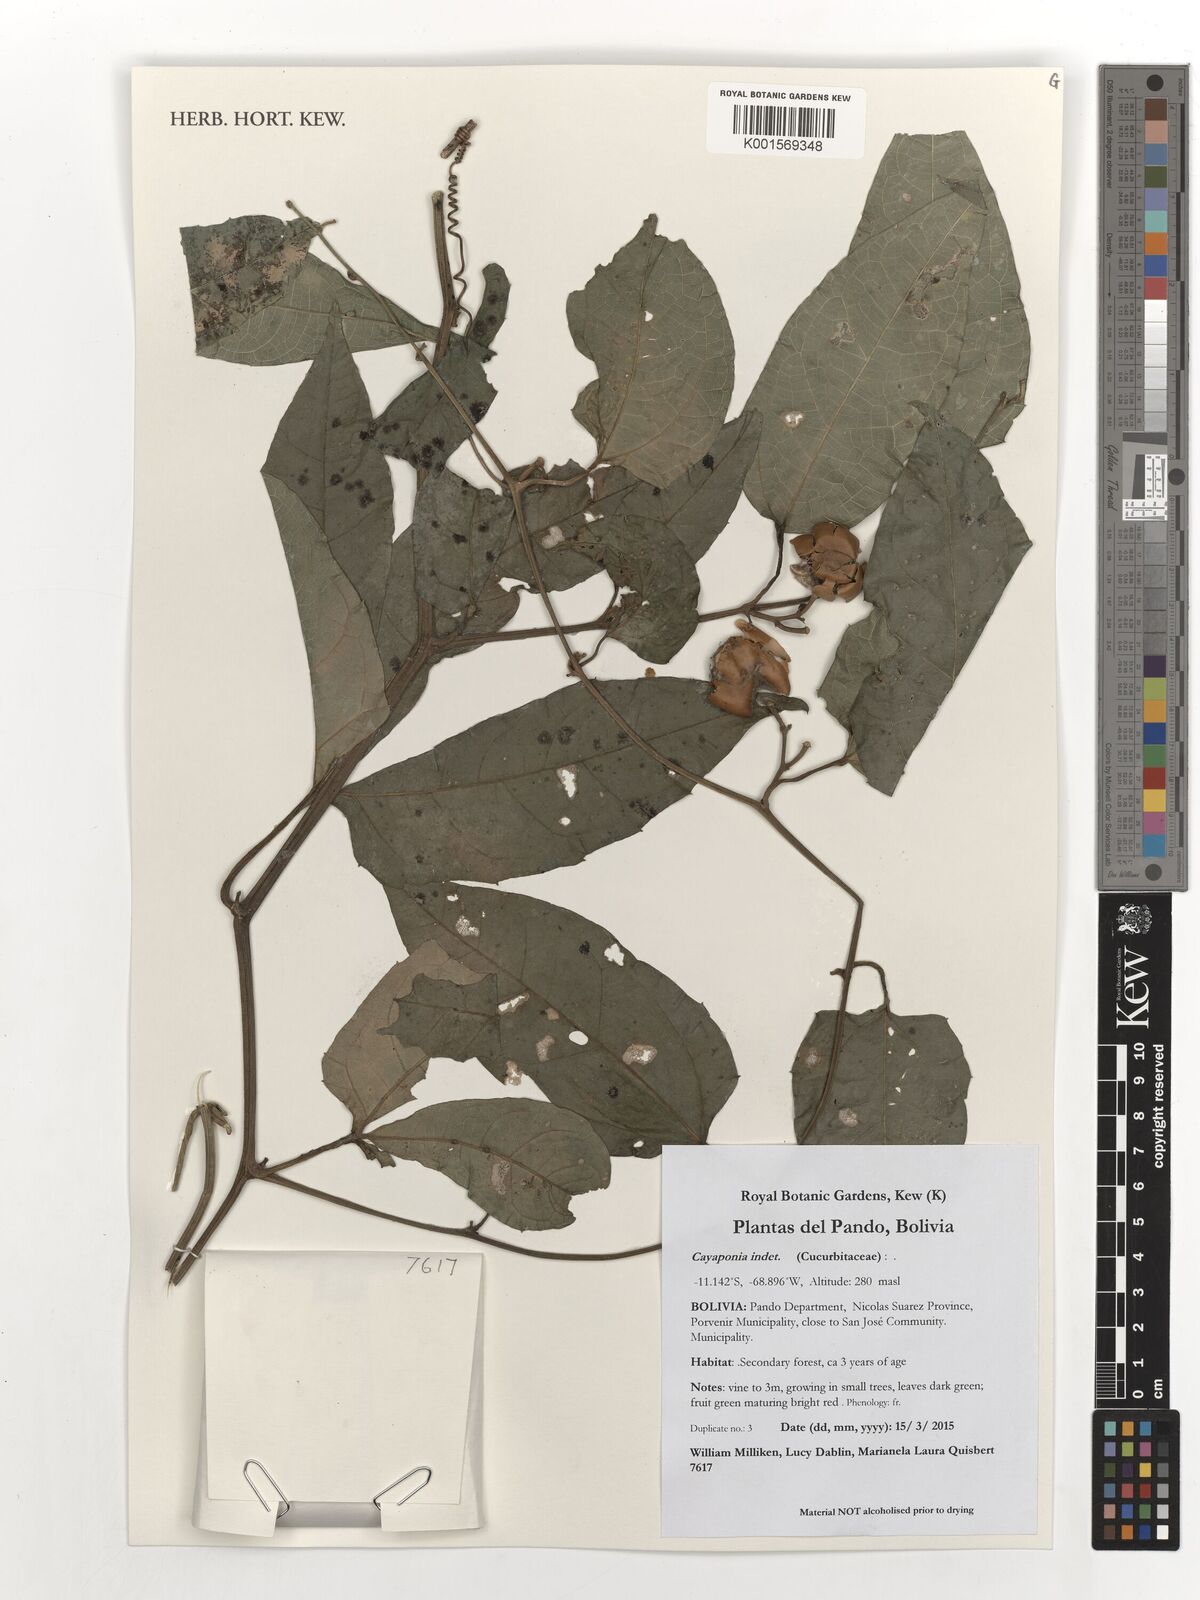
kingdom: Plantae
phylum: Tracheophyta
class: Magnoliopsida
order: Cucurbitales
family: Cucurbitaceae
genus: Cayaponia
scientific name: Cayaponia
